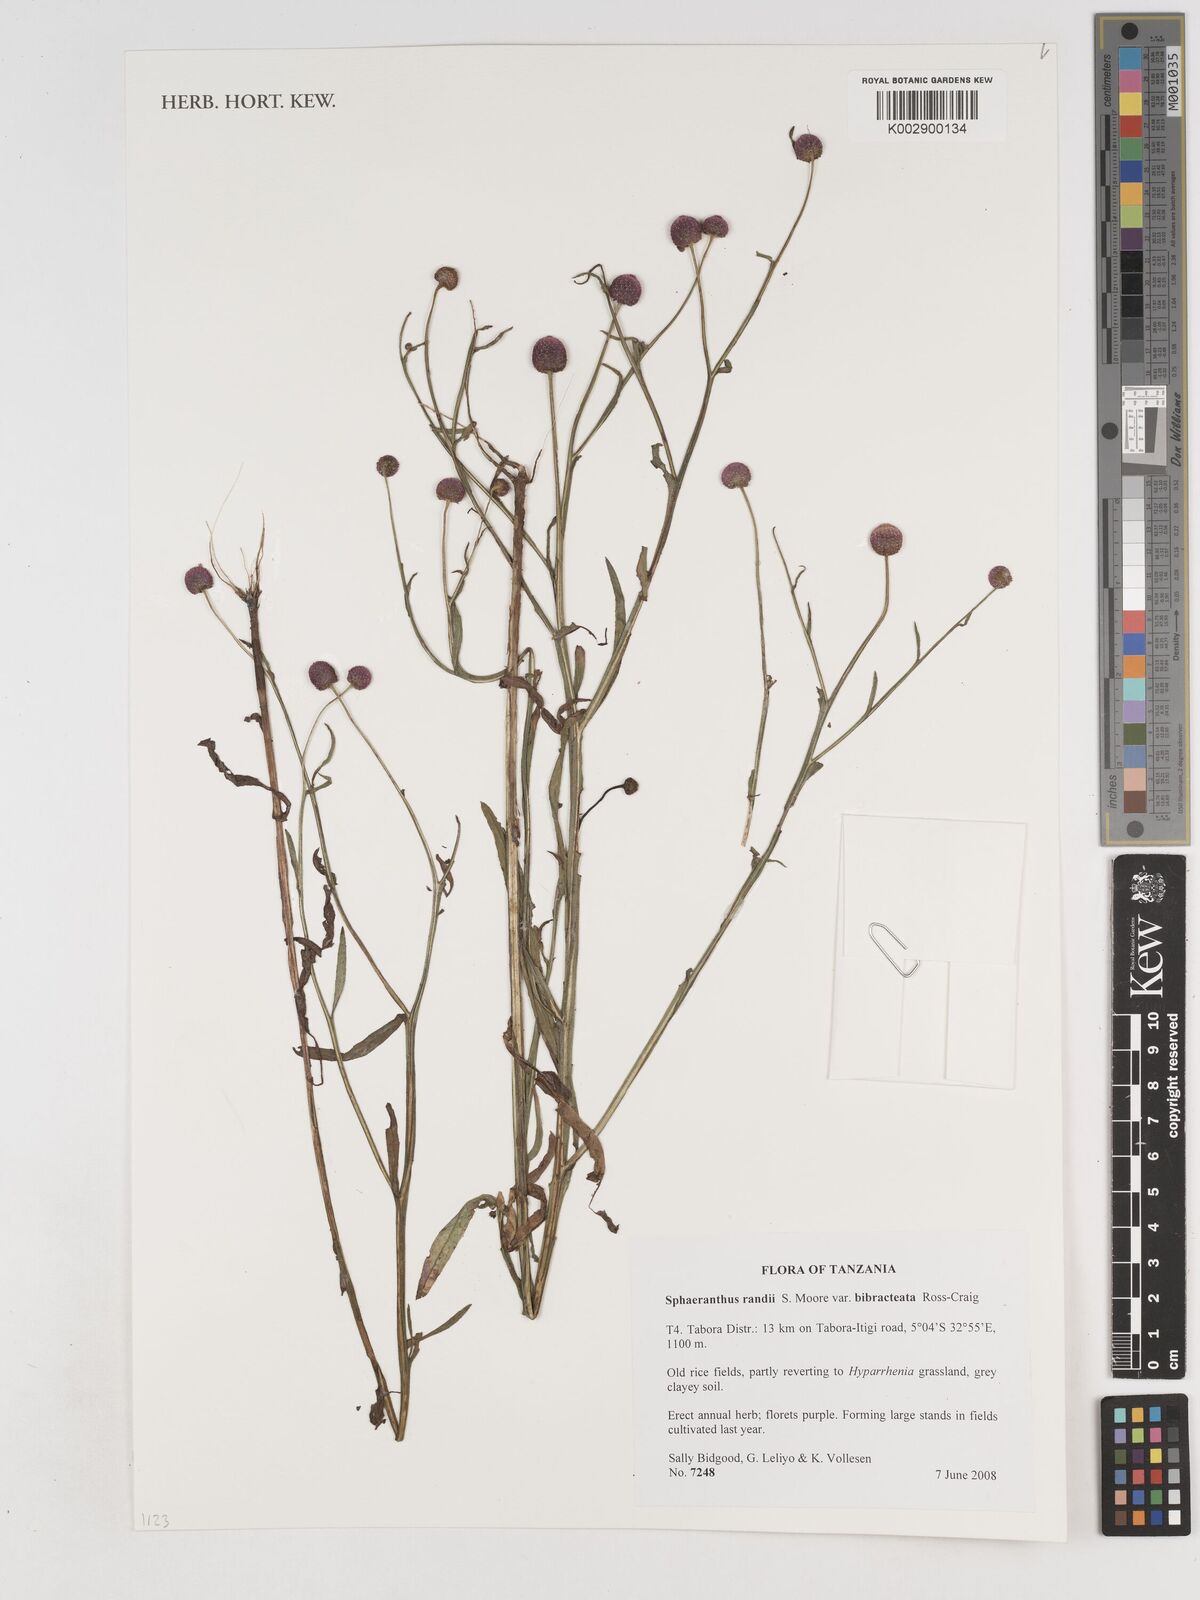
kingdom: Plantae
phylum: Tracheophyta
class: Magnoliopsida
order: Asterales
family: Asteraceae
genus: Sphaeranthus
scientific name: Sphaeranthus randii
